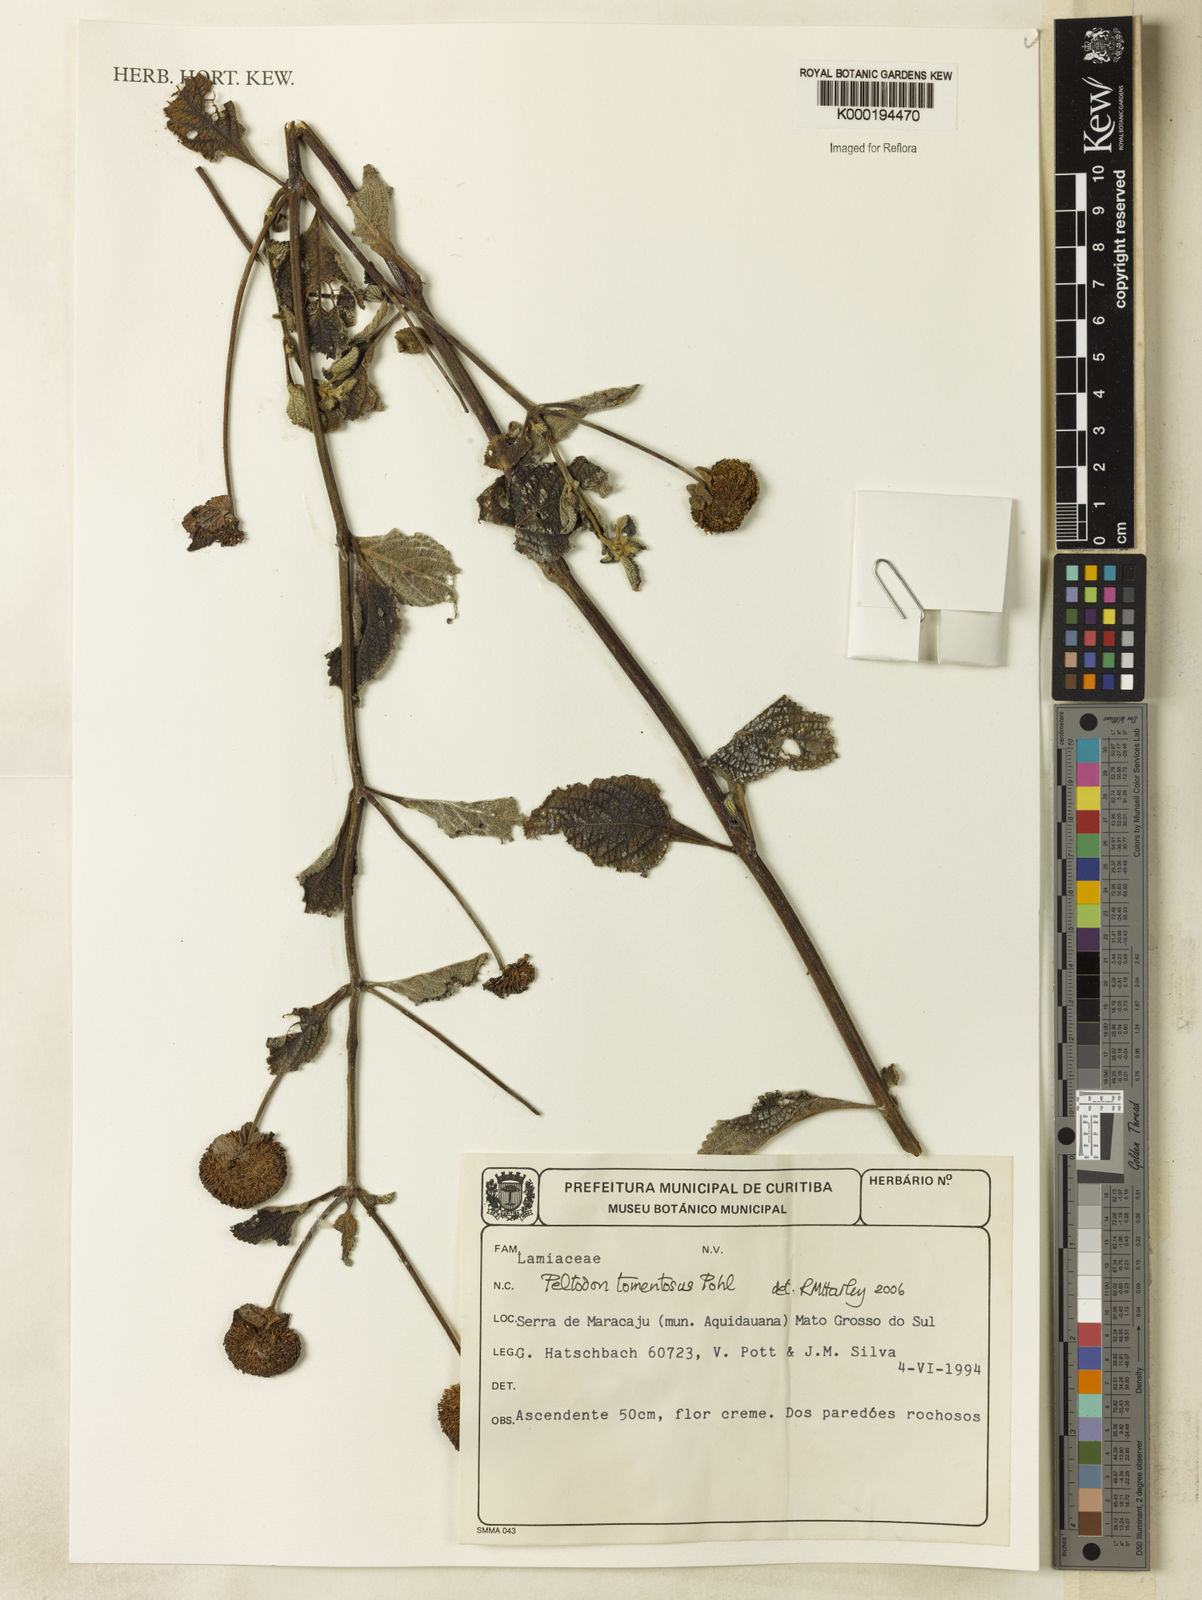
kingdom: Plantae
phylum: Tracheophyta
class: Magnoliopsida
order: Lamiales
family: Lamiaceae
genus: Hyptis
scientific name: Hyptis campestris
